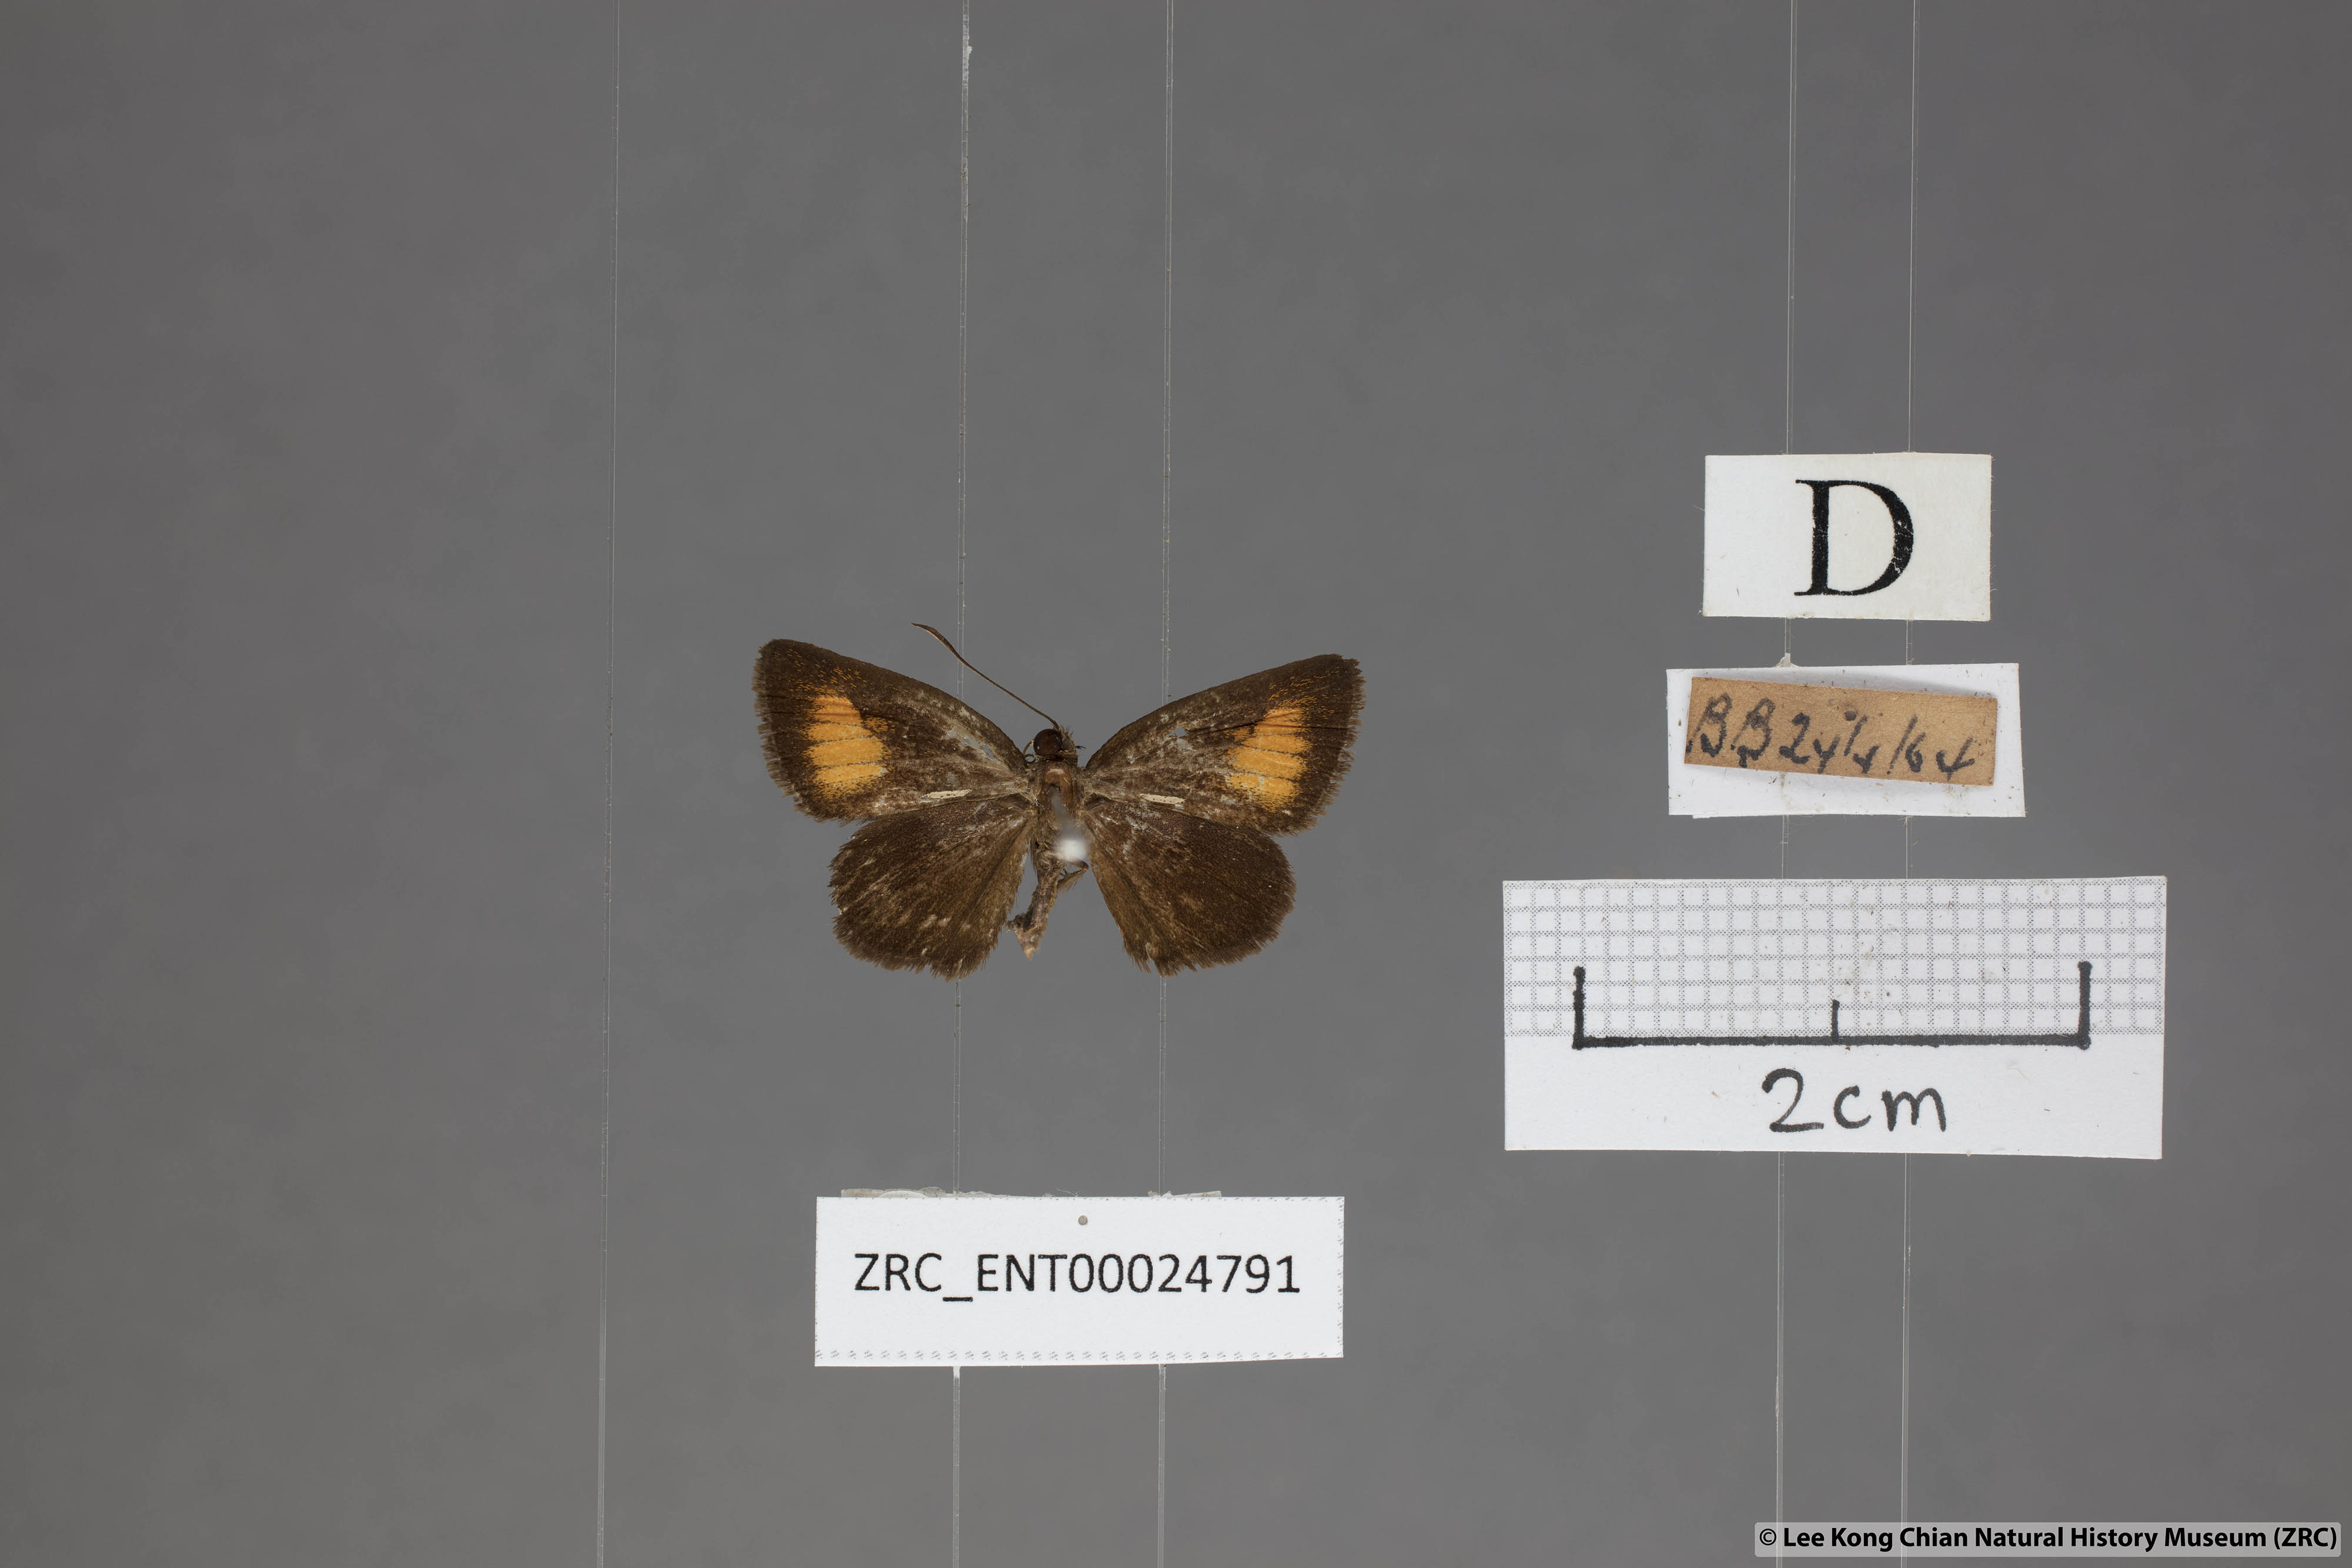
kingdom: Animalia
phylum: Arthropoda
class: Insecta
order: Lepidoptera
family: Hesperiidae
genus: Iambrix
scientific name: Iambrix Idmon obliquans
